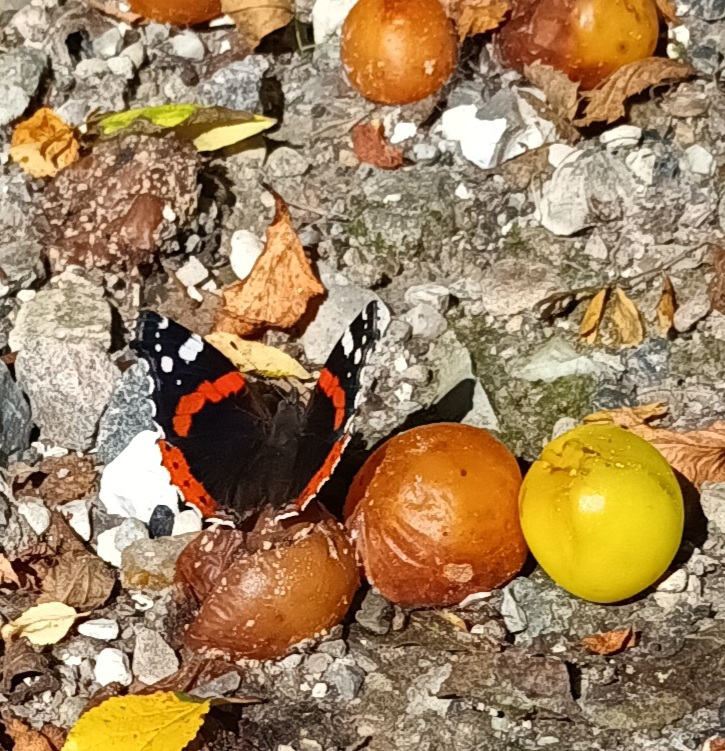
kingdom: Animalia
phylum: Arthropoda
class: Insecta
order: Lepidoptera
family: Nymphalidae
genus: Vanessa
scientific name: Vanessa atalanta
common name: Admiral
